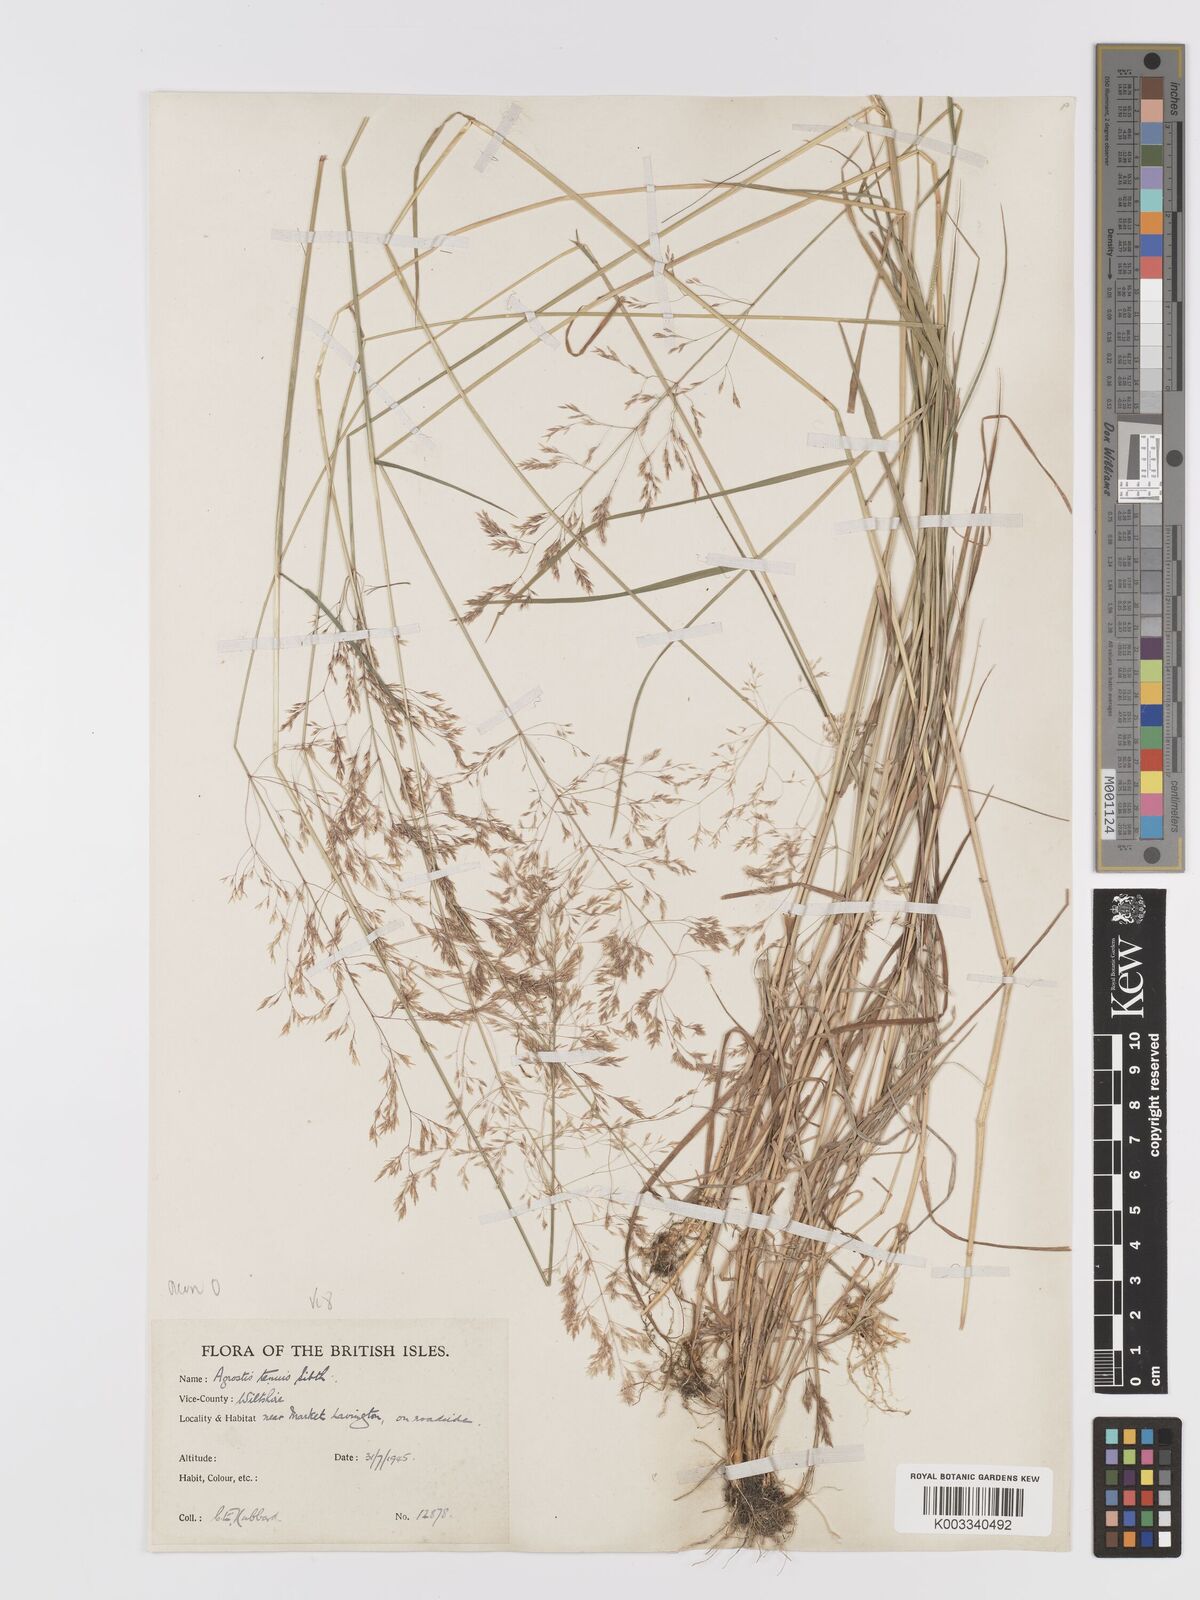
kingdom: Plantae
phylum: Tracheophyta
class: Liliopsida
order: Poales
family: Poaceae
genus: Agrostis
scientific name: Agrostis
